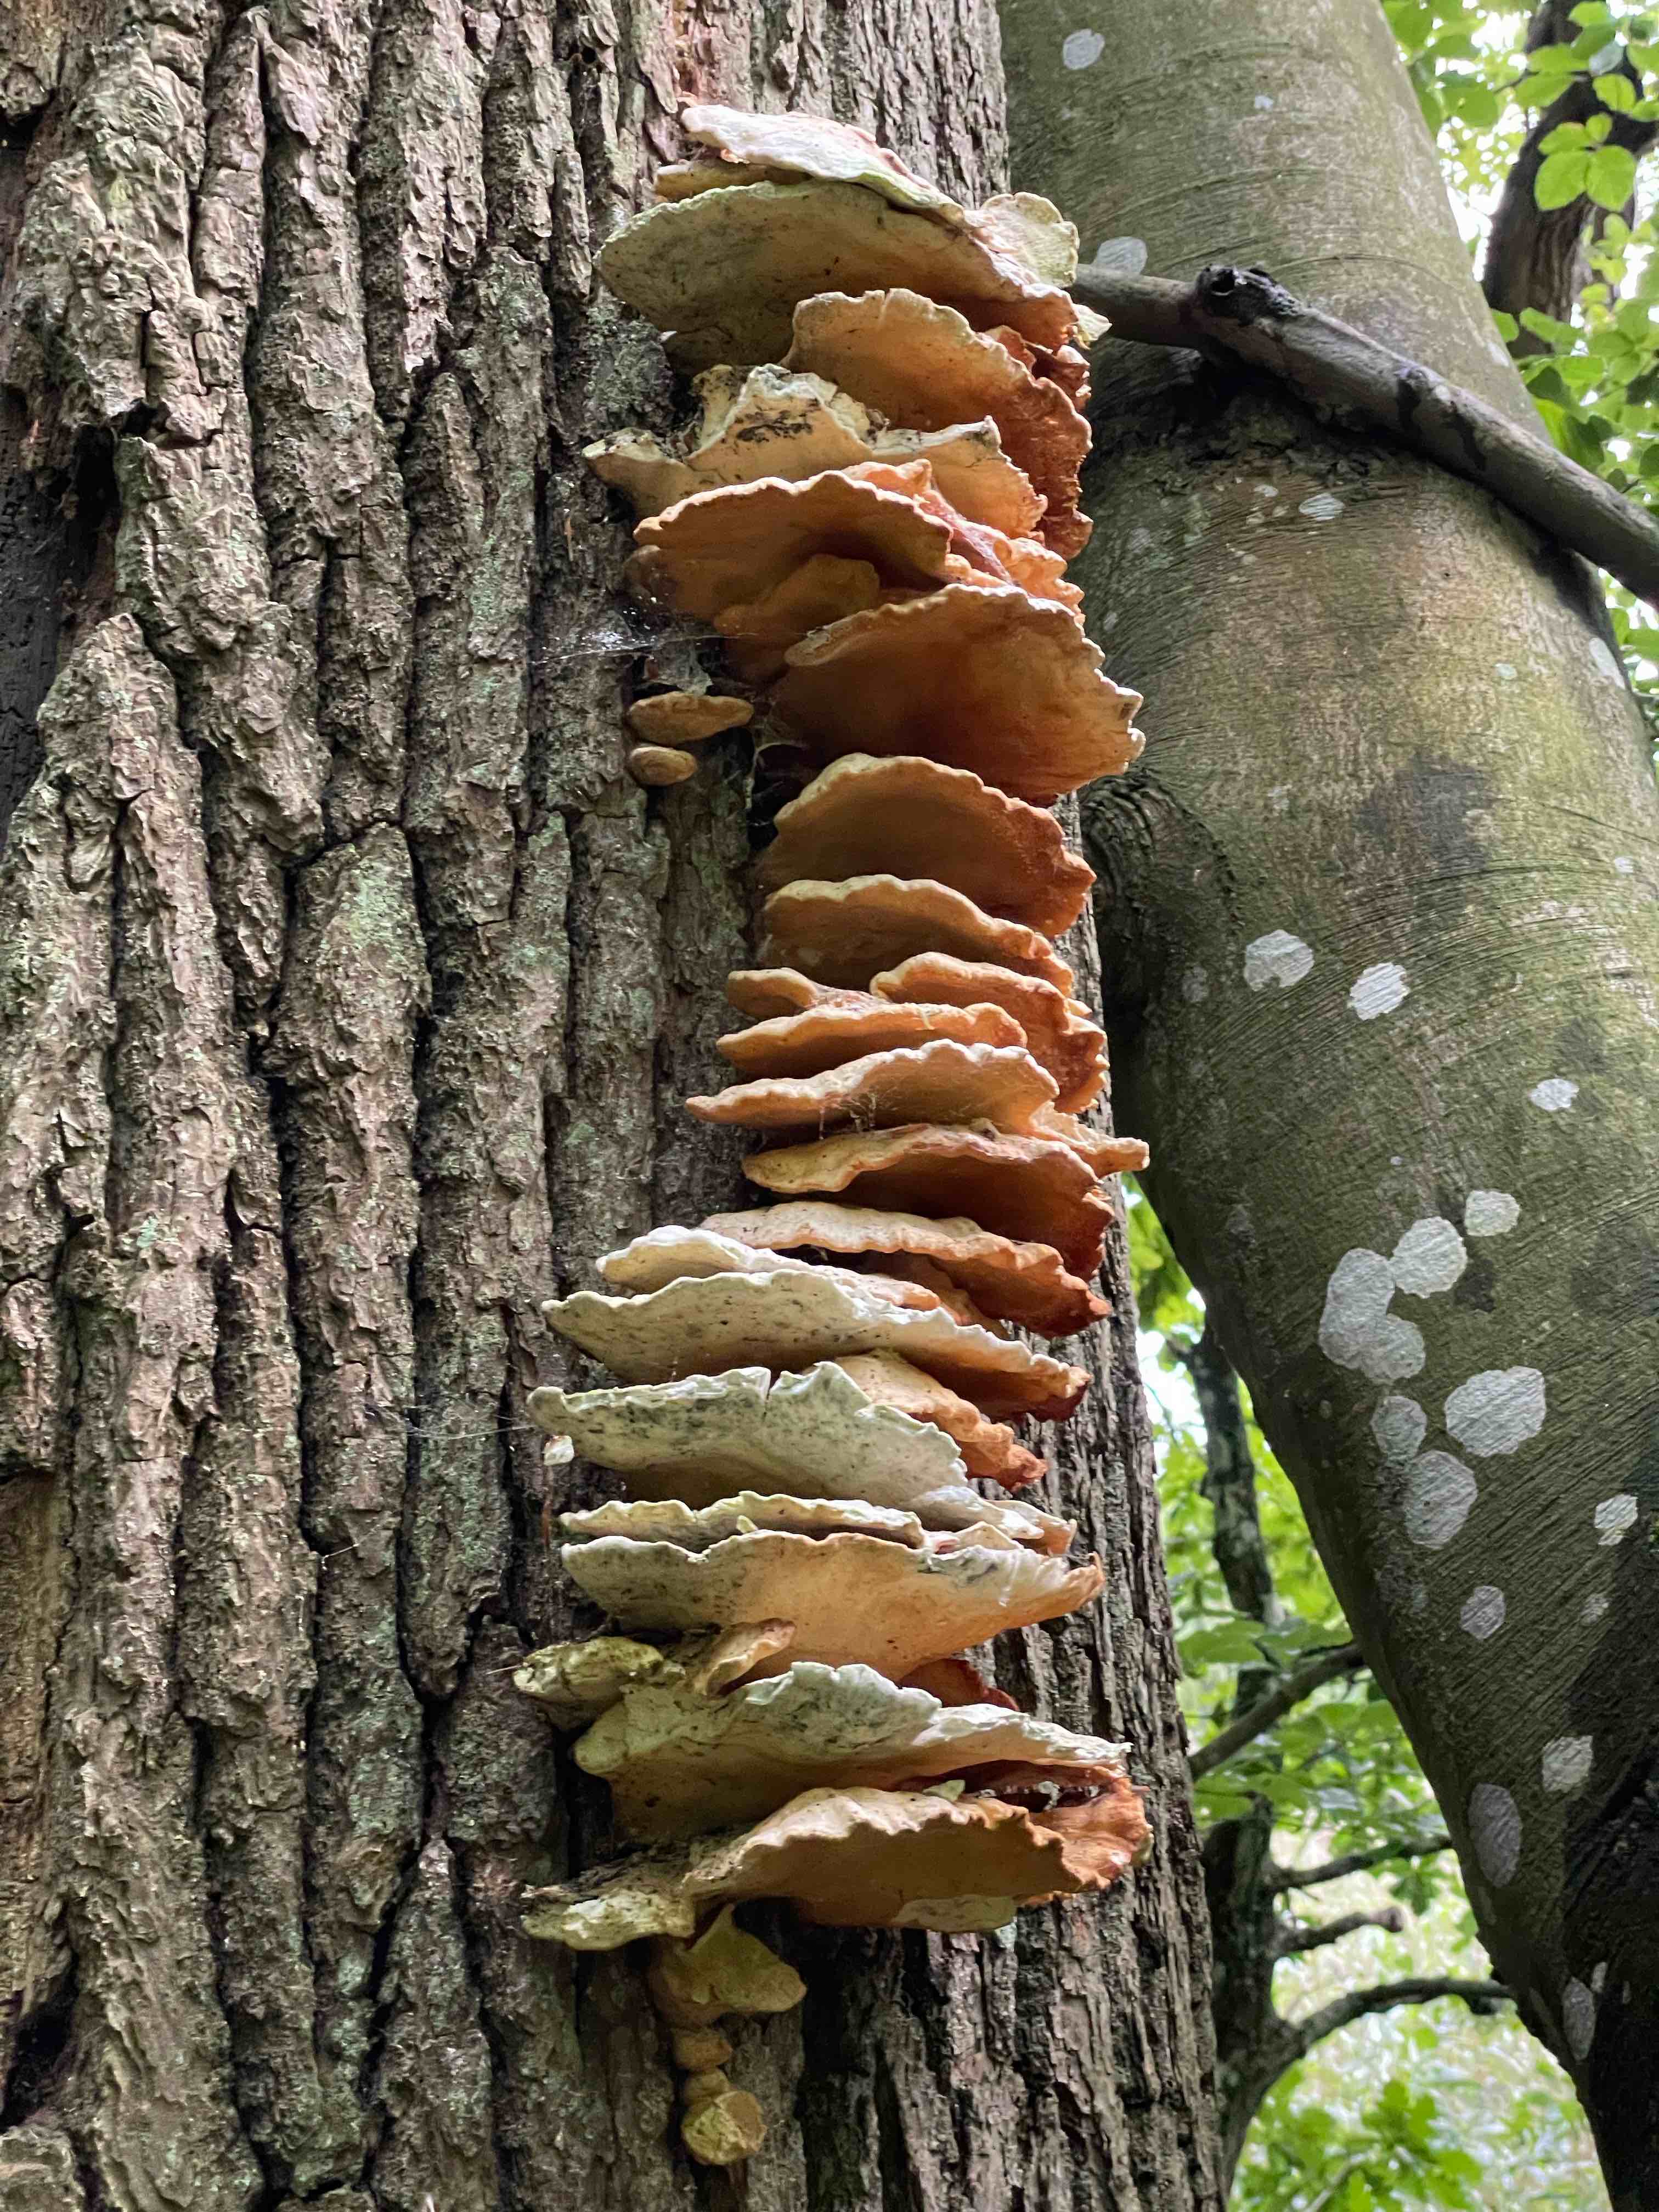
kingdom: Fungi
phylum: Basidiomycota
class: Agaricomycetes
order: Polyporales
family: Laetiporaceae
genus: Laetiporus
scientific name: Laetiporus sulphureus
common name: svovlporesvamp
